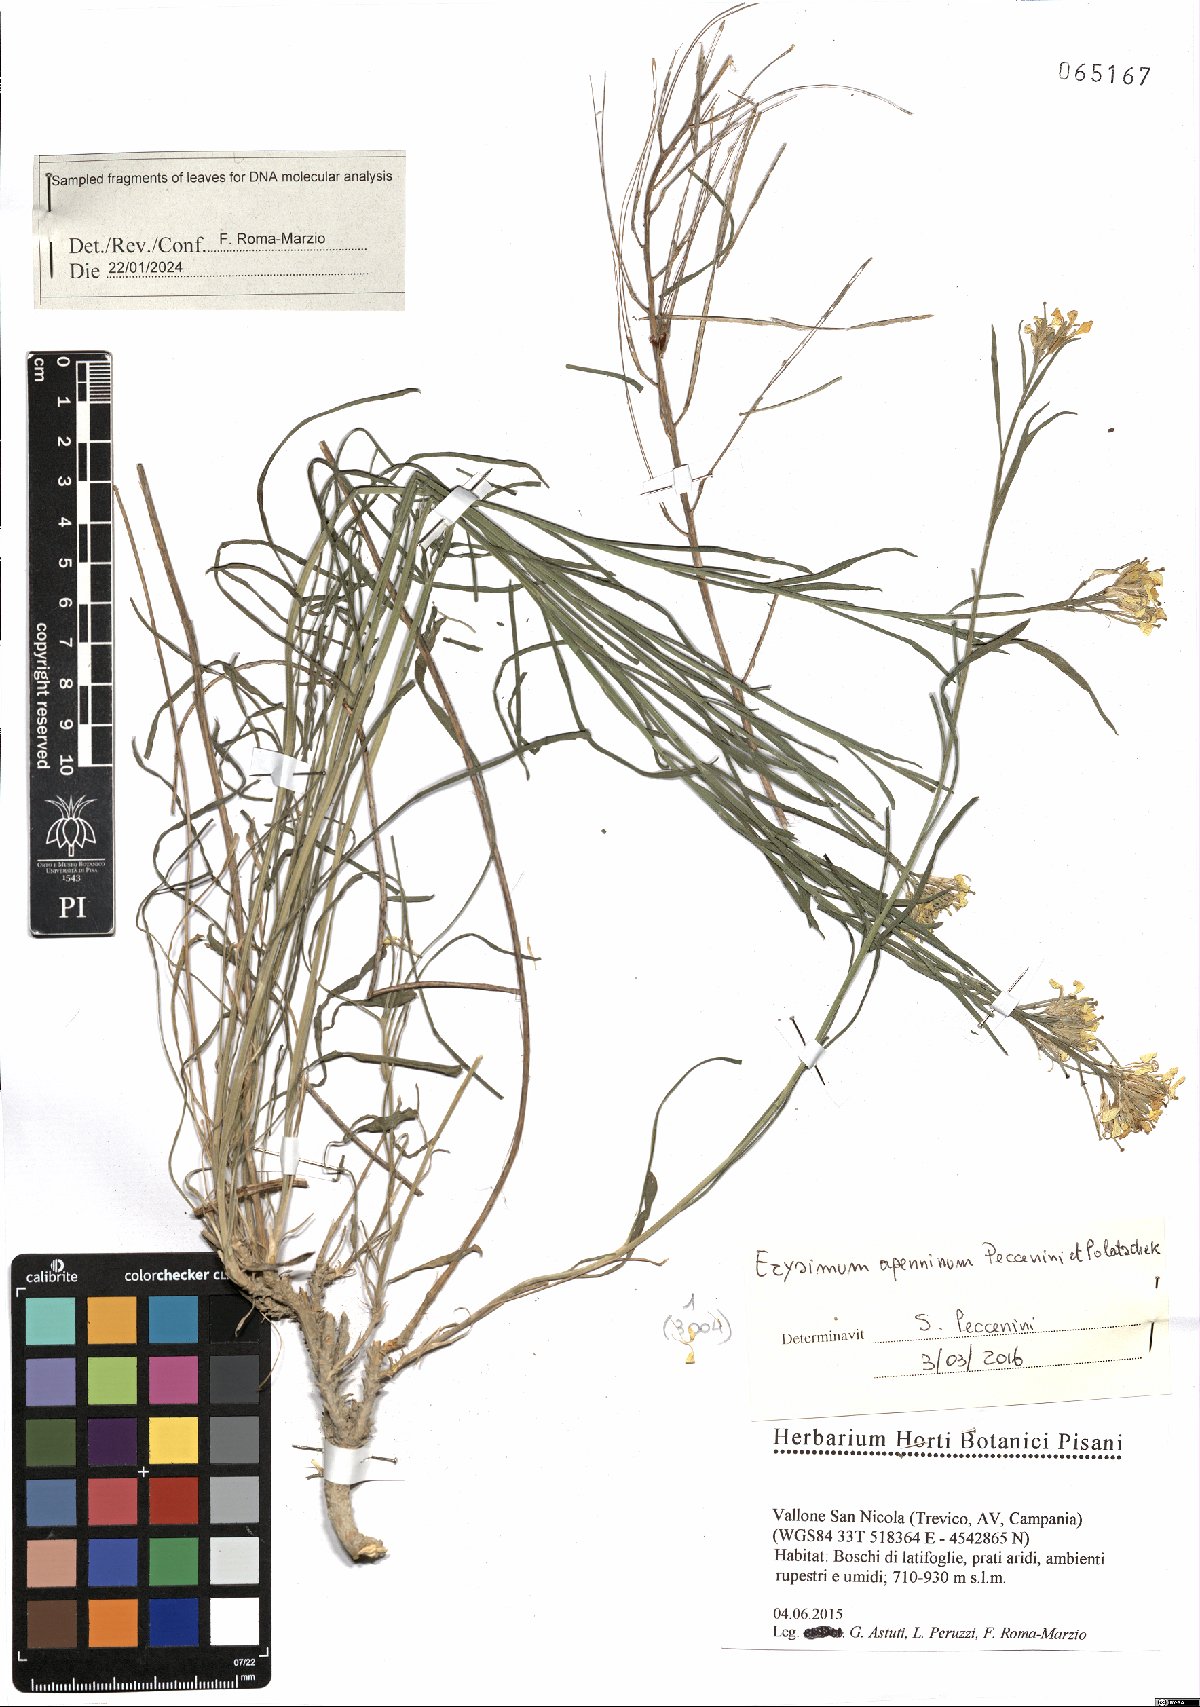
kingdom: Plantae
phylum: Tracheophyta
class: Magnoliopsida
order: Brassicales
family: Brassicaceae
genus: Erysimum
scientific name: Erysimum apenninum
